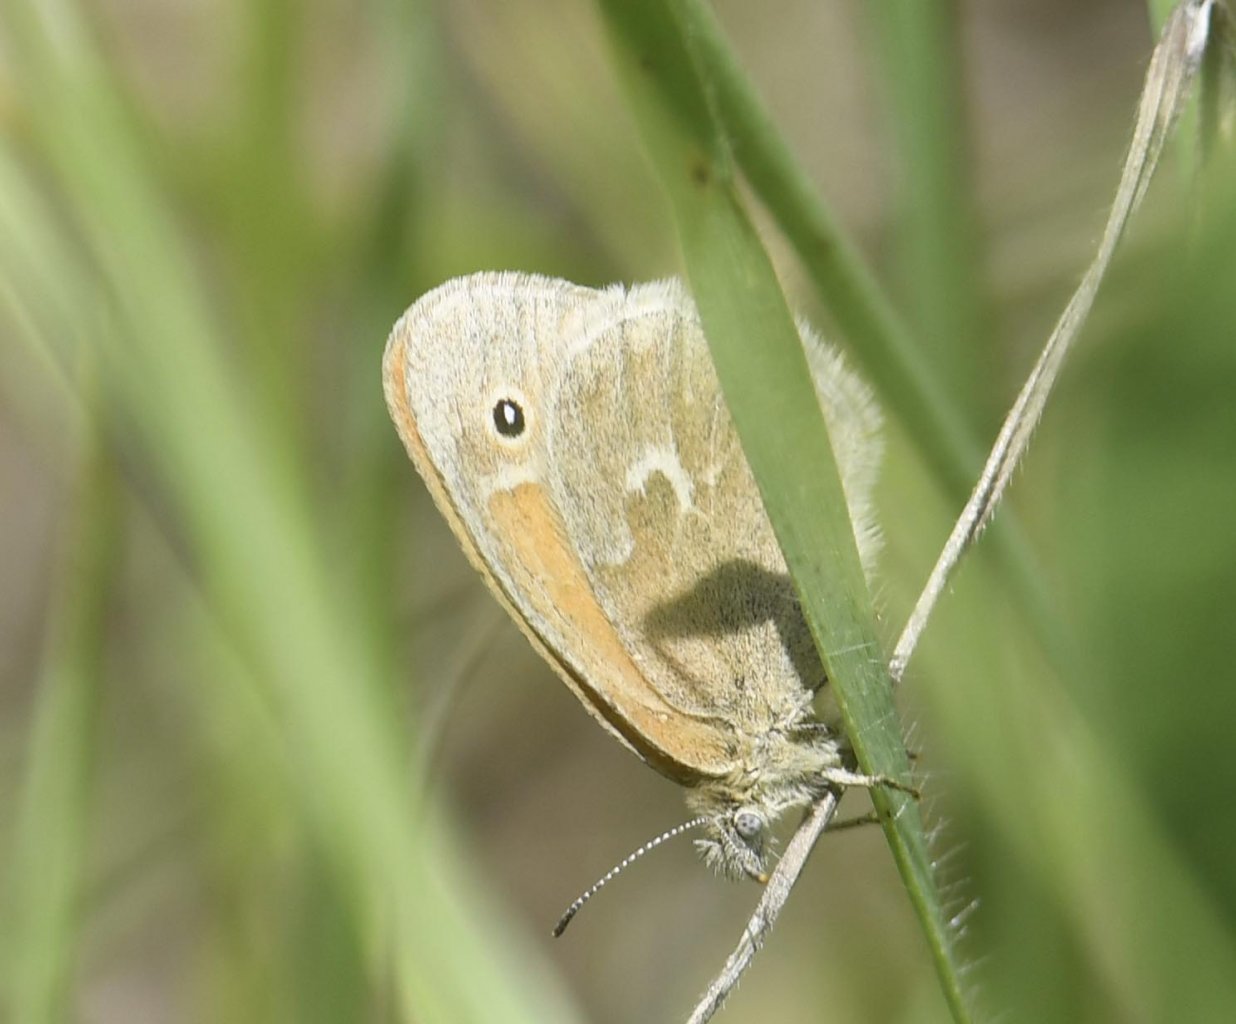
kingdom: Animalia
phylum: Arthropoda
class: Insecta
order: Lepidoptera
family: Nymphalidae
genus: Coenonympha
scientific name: Coenonympha tullia
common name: Large Heath
